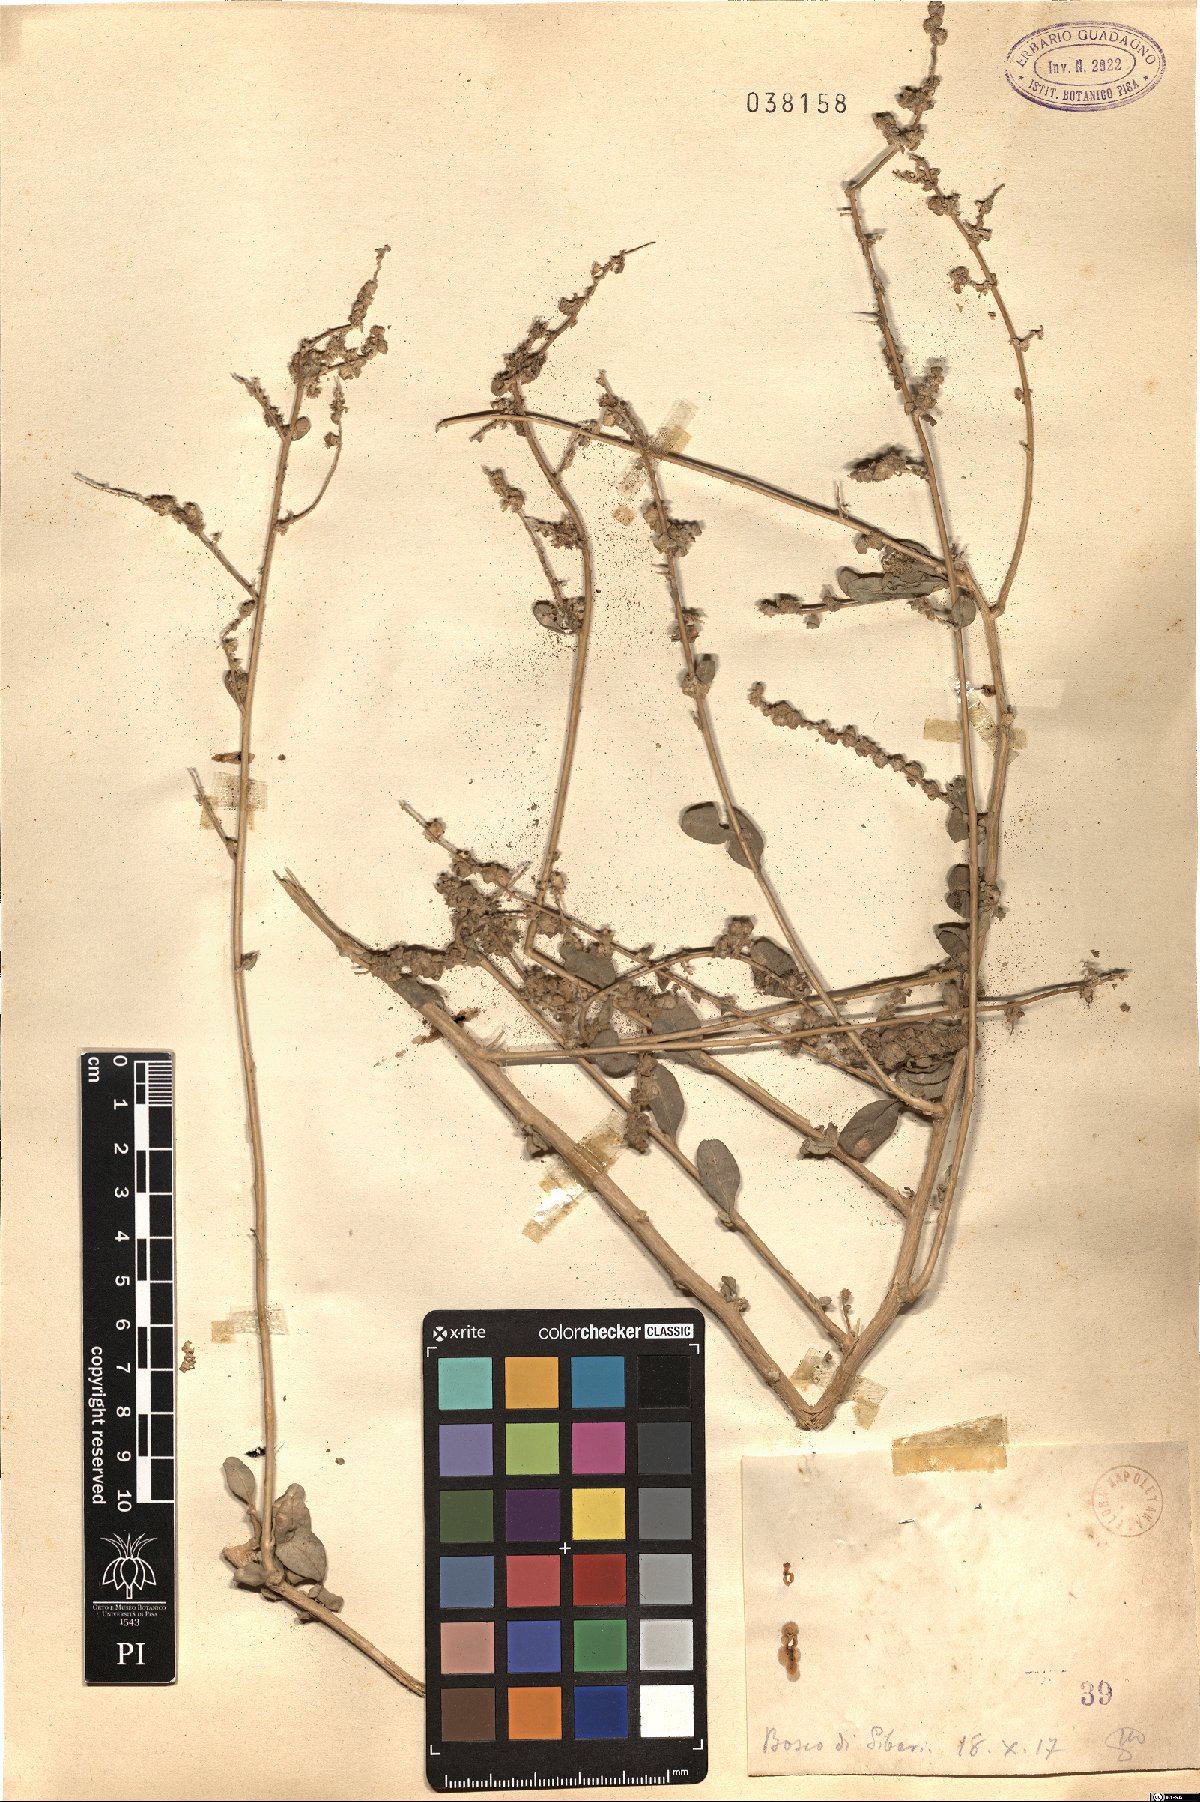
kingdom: Plantae
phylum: Tracheophyta
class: Magnoliopsida
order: Caryophyllales
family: Amaranthaceae
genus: Atriplex
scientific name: Atriplex
